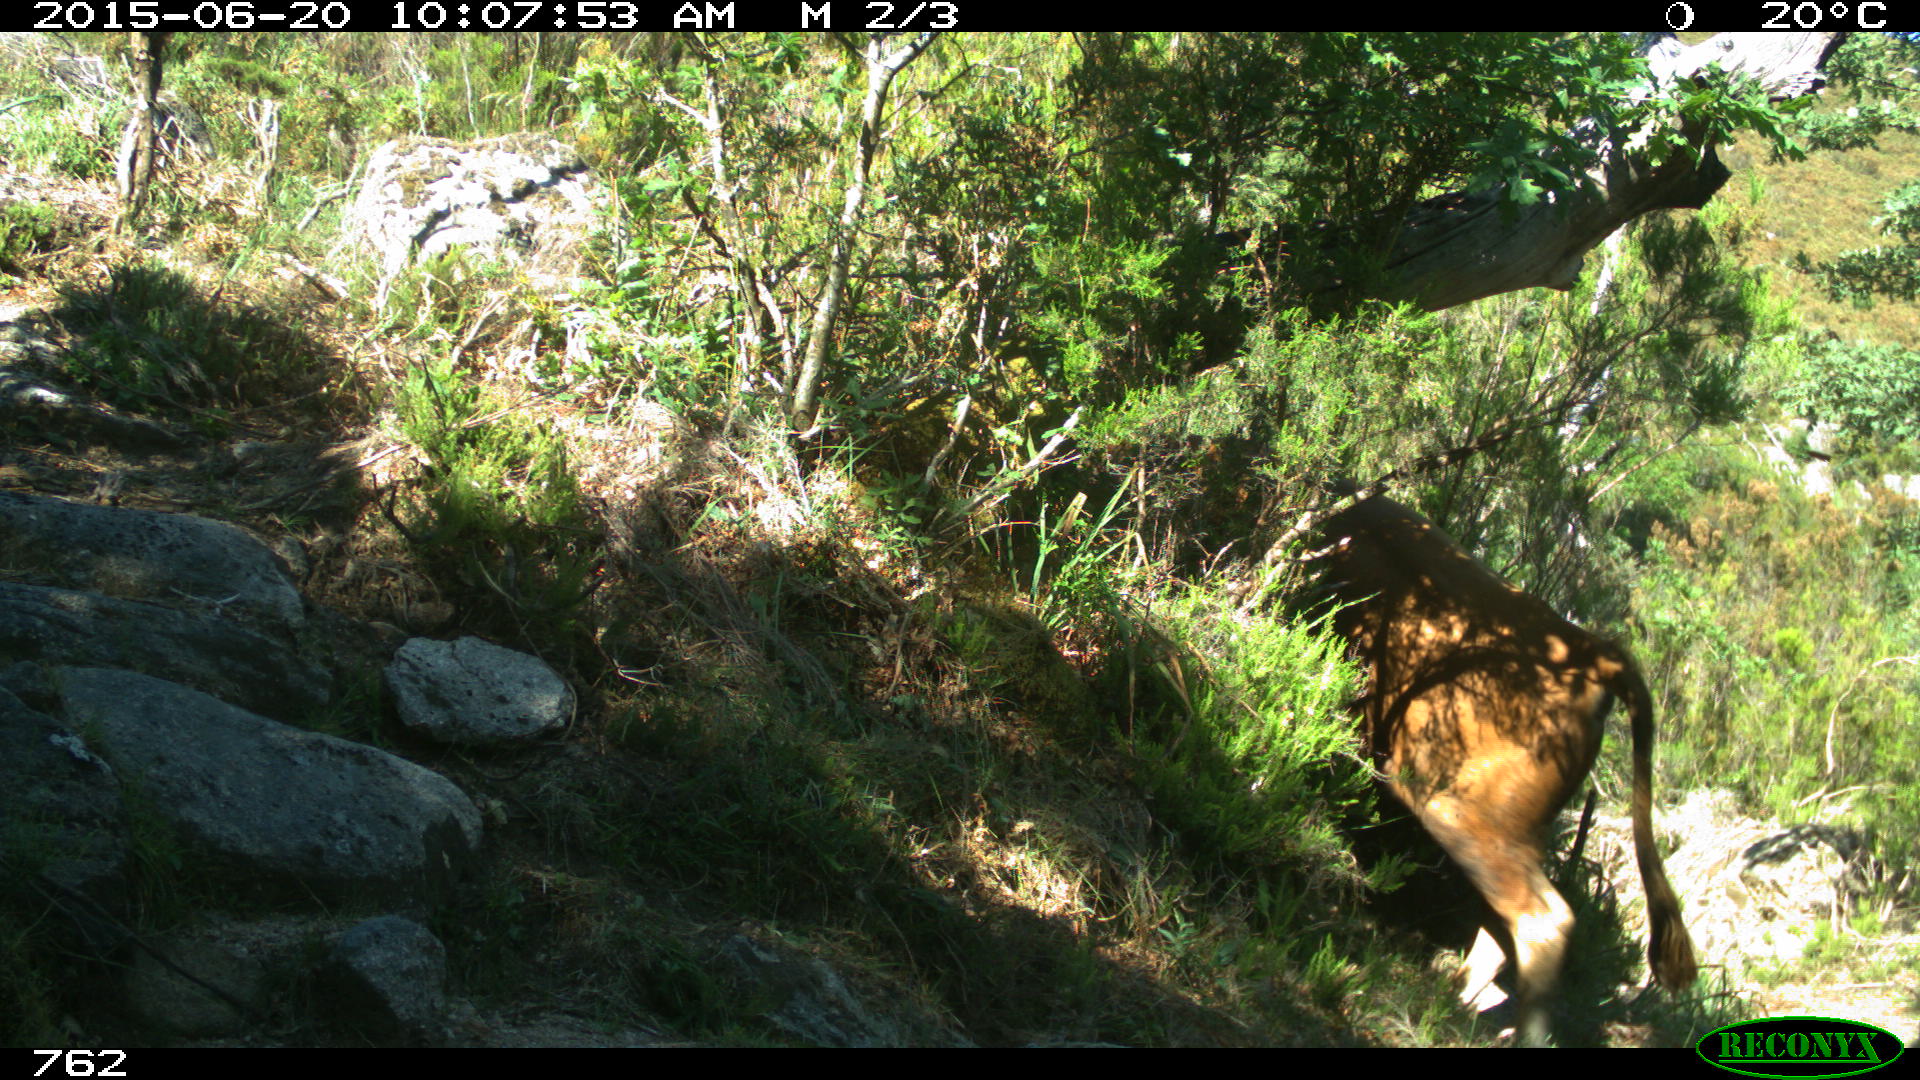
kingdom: Animalia
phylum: Chordata
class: Mammalia
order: Artiodactyla
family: Bovidae
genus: Bos
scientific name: Bos taurus
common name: Domesticated cattle
